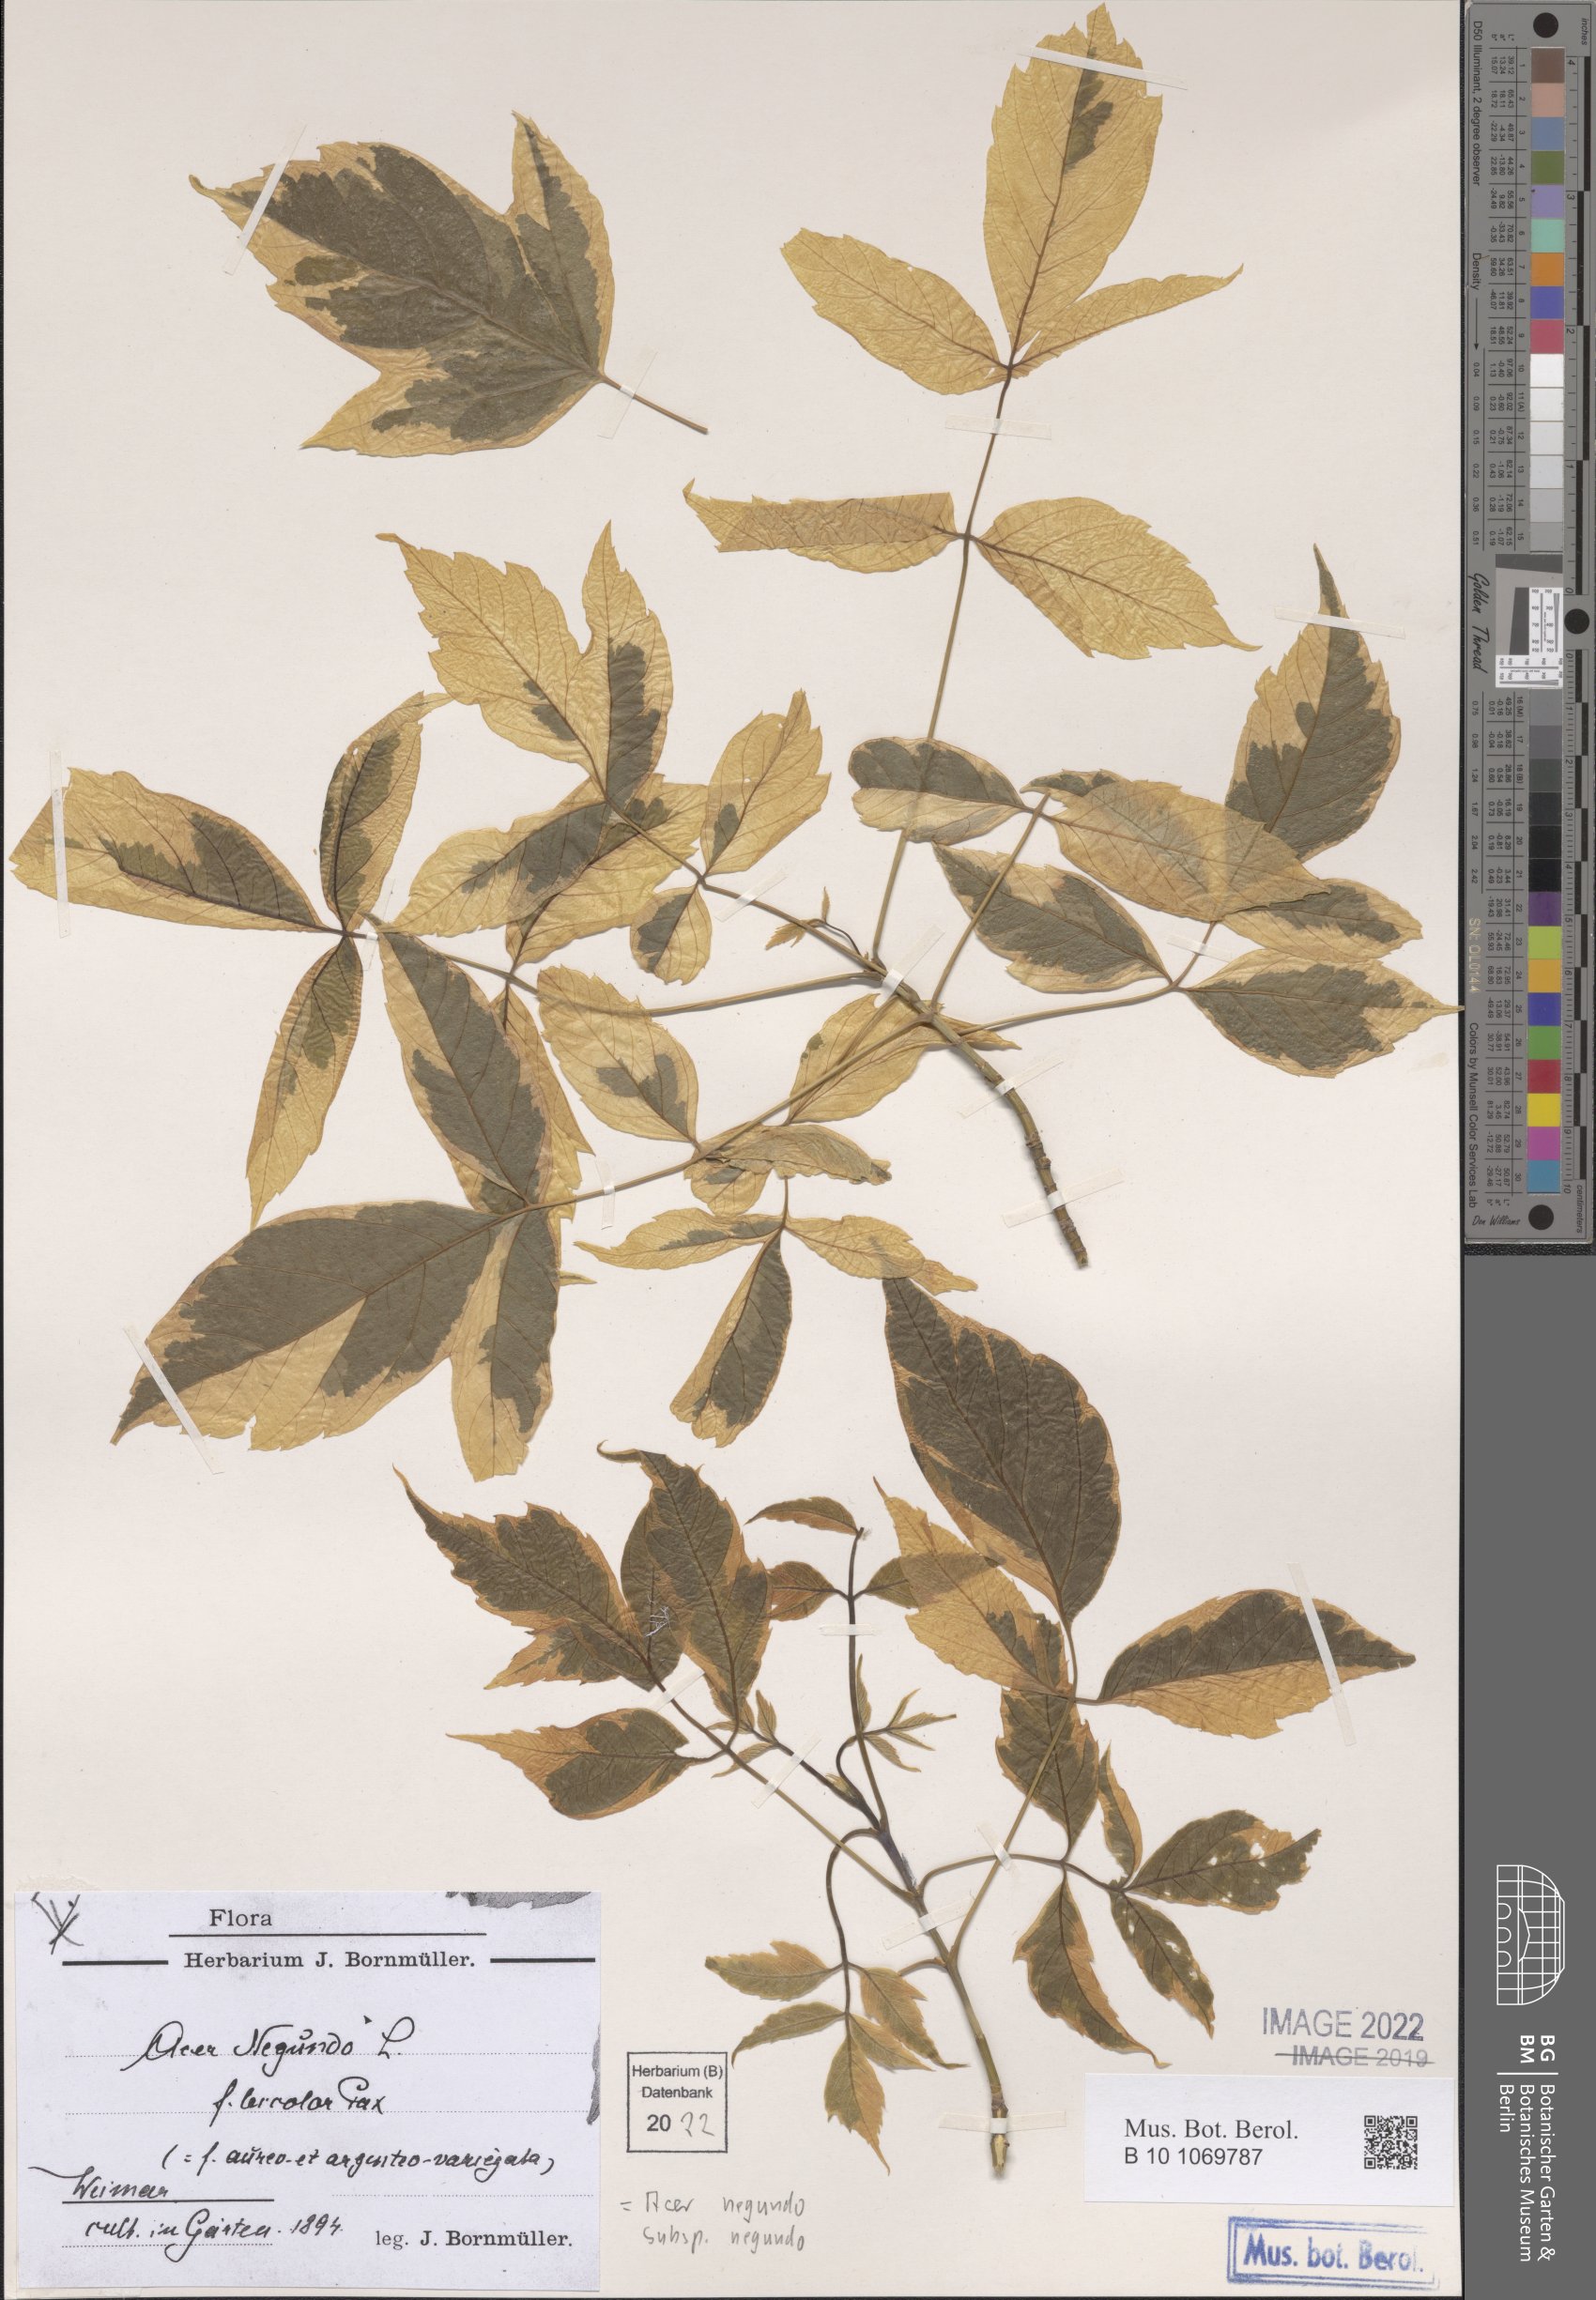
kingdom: Plantae
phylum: Tracheophyta
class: Magnoliopsida
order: Sapindales
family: Sapindaceae
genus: Acer
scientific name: Acer negundo
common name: Ashleaf maple
